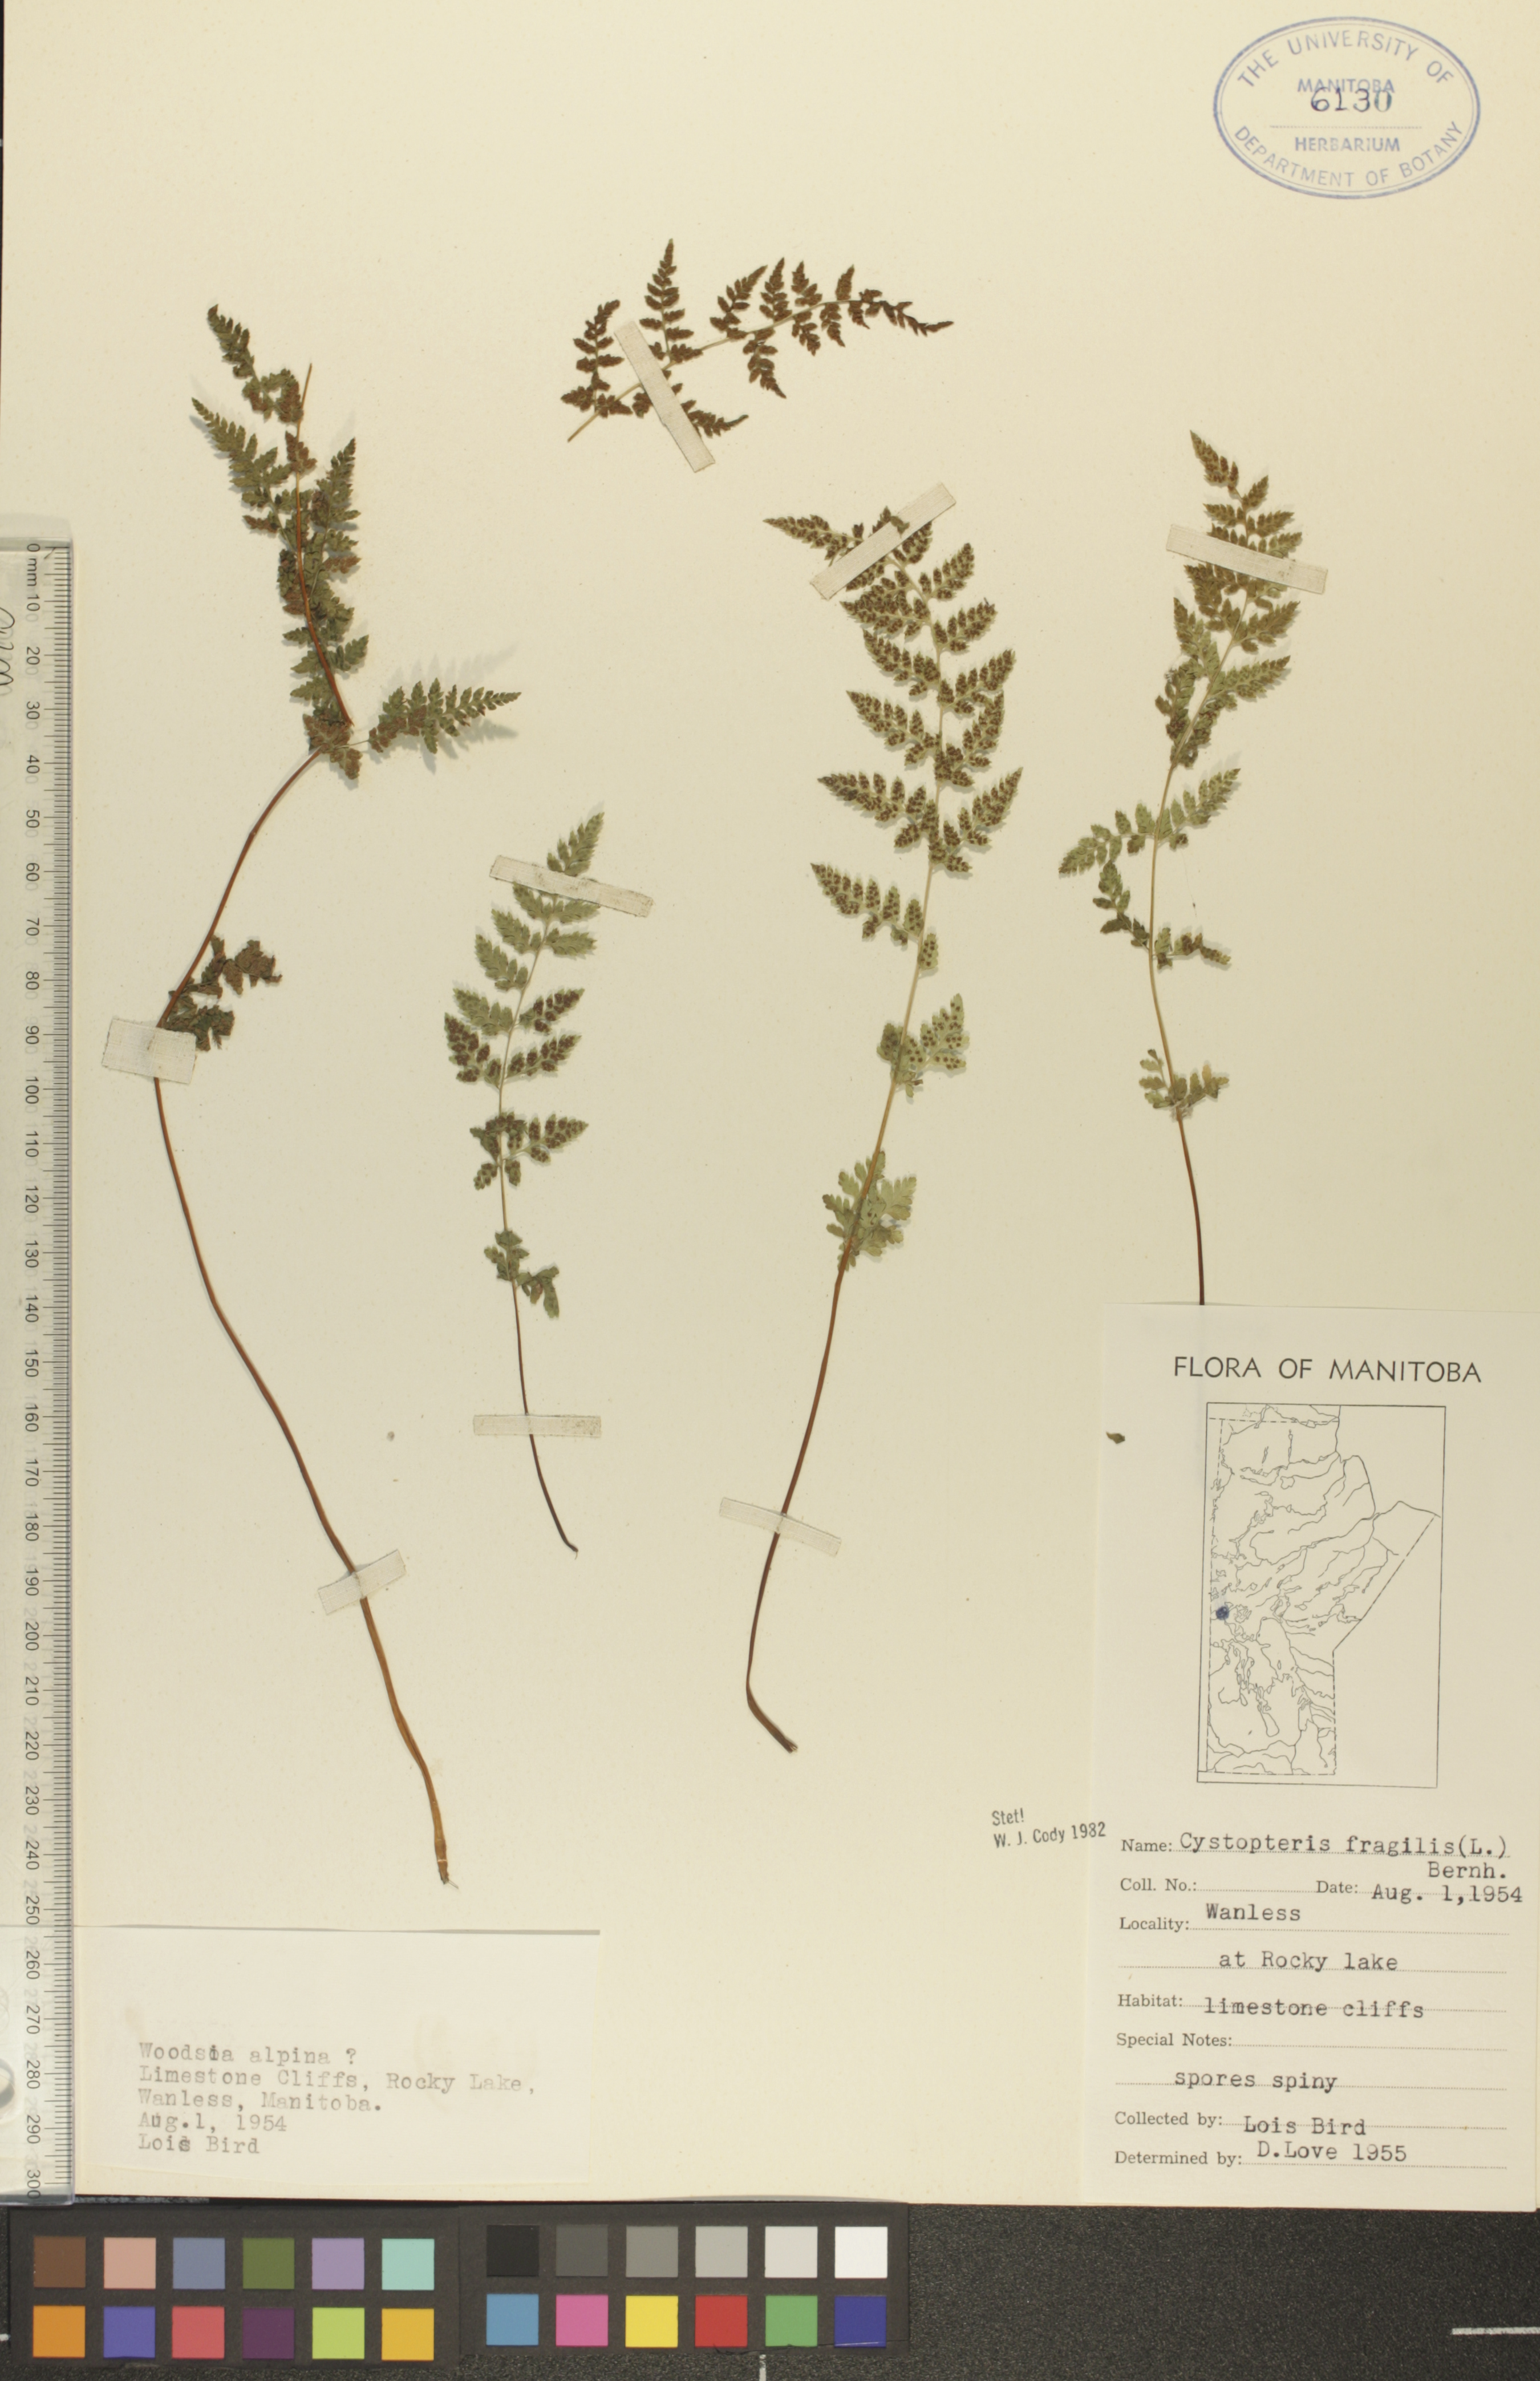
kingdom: Plantae
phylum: Tracheophyta
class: Polypodiopsida
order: Polypodiales
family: Cystopteridaceae
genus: Cystopteris
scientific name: Cystopteris fragilis
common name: Brittle bladder fern
